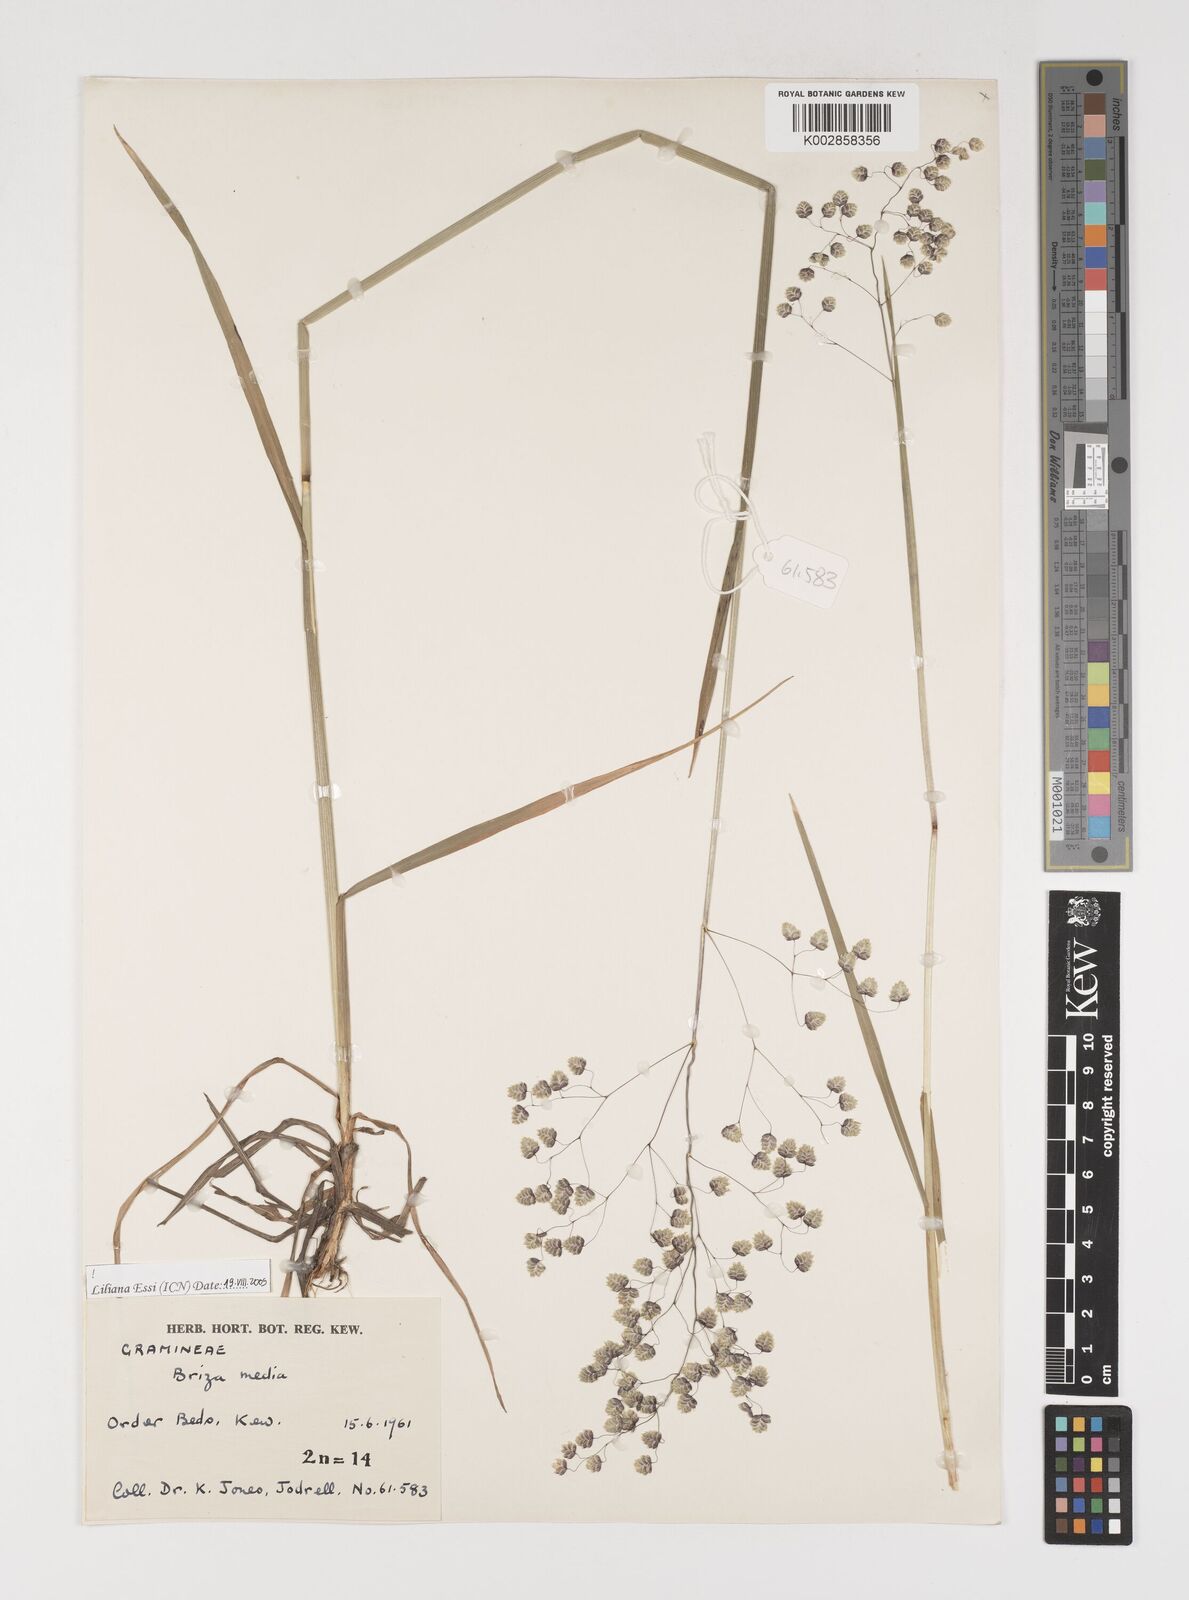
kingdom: Plantae
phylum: Tracheophyta
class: Liliopsida
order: Poales
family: Poaceae
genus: Briza
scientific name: Briza media
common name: Quaking grass
